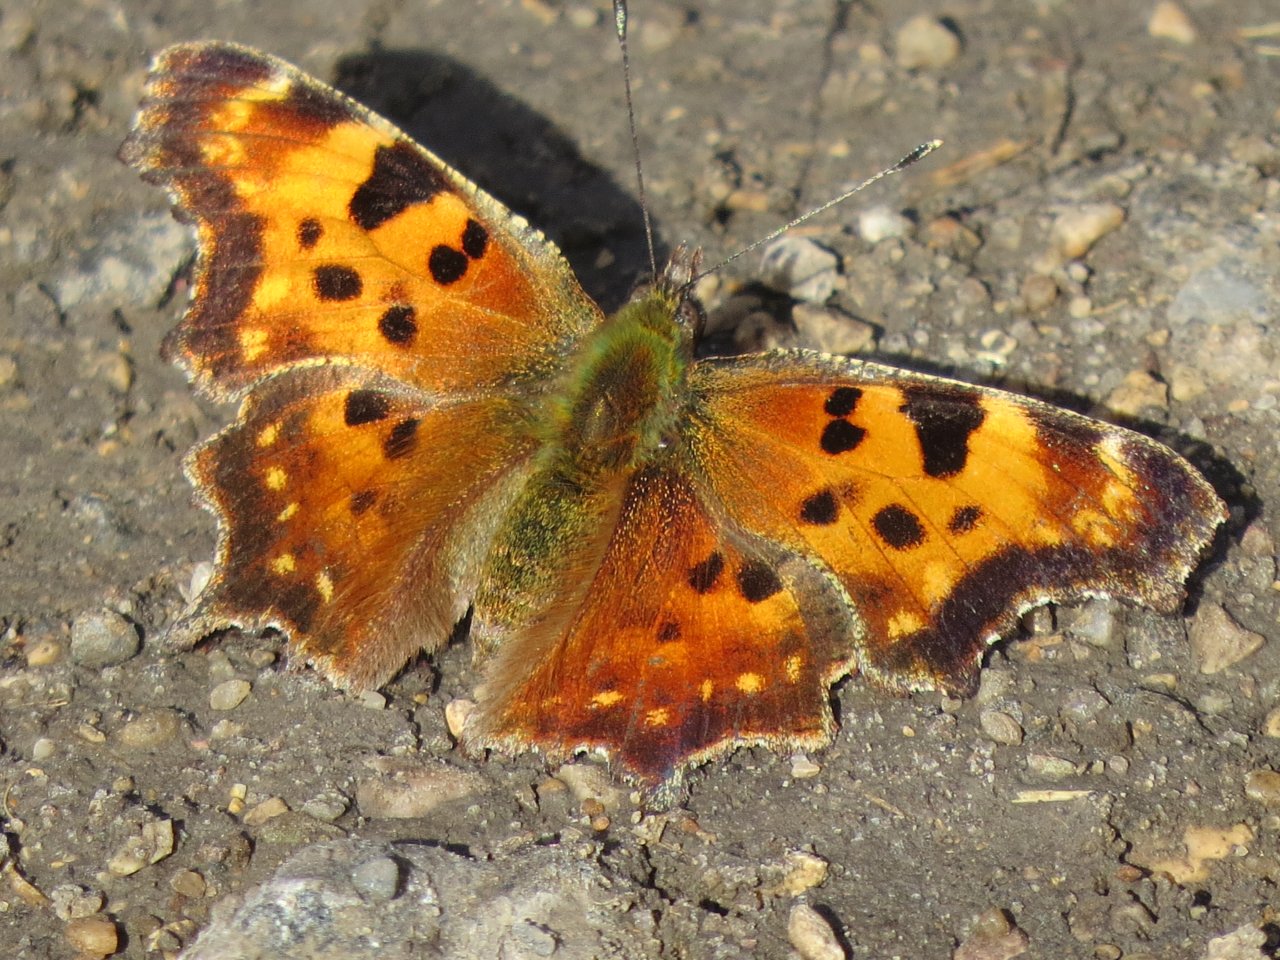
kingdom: Animalia
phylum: Arthropoda
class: Insecta
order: Lepidoptera
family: Nymphalidae
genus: Polygonia
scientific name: Polygonia faunus
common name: Green Comma
